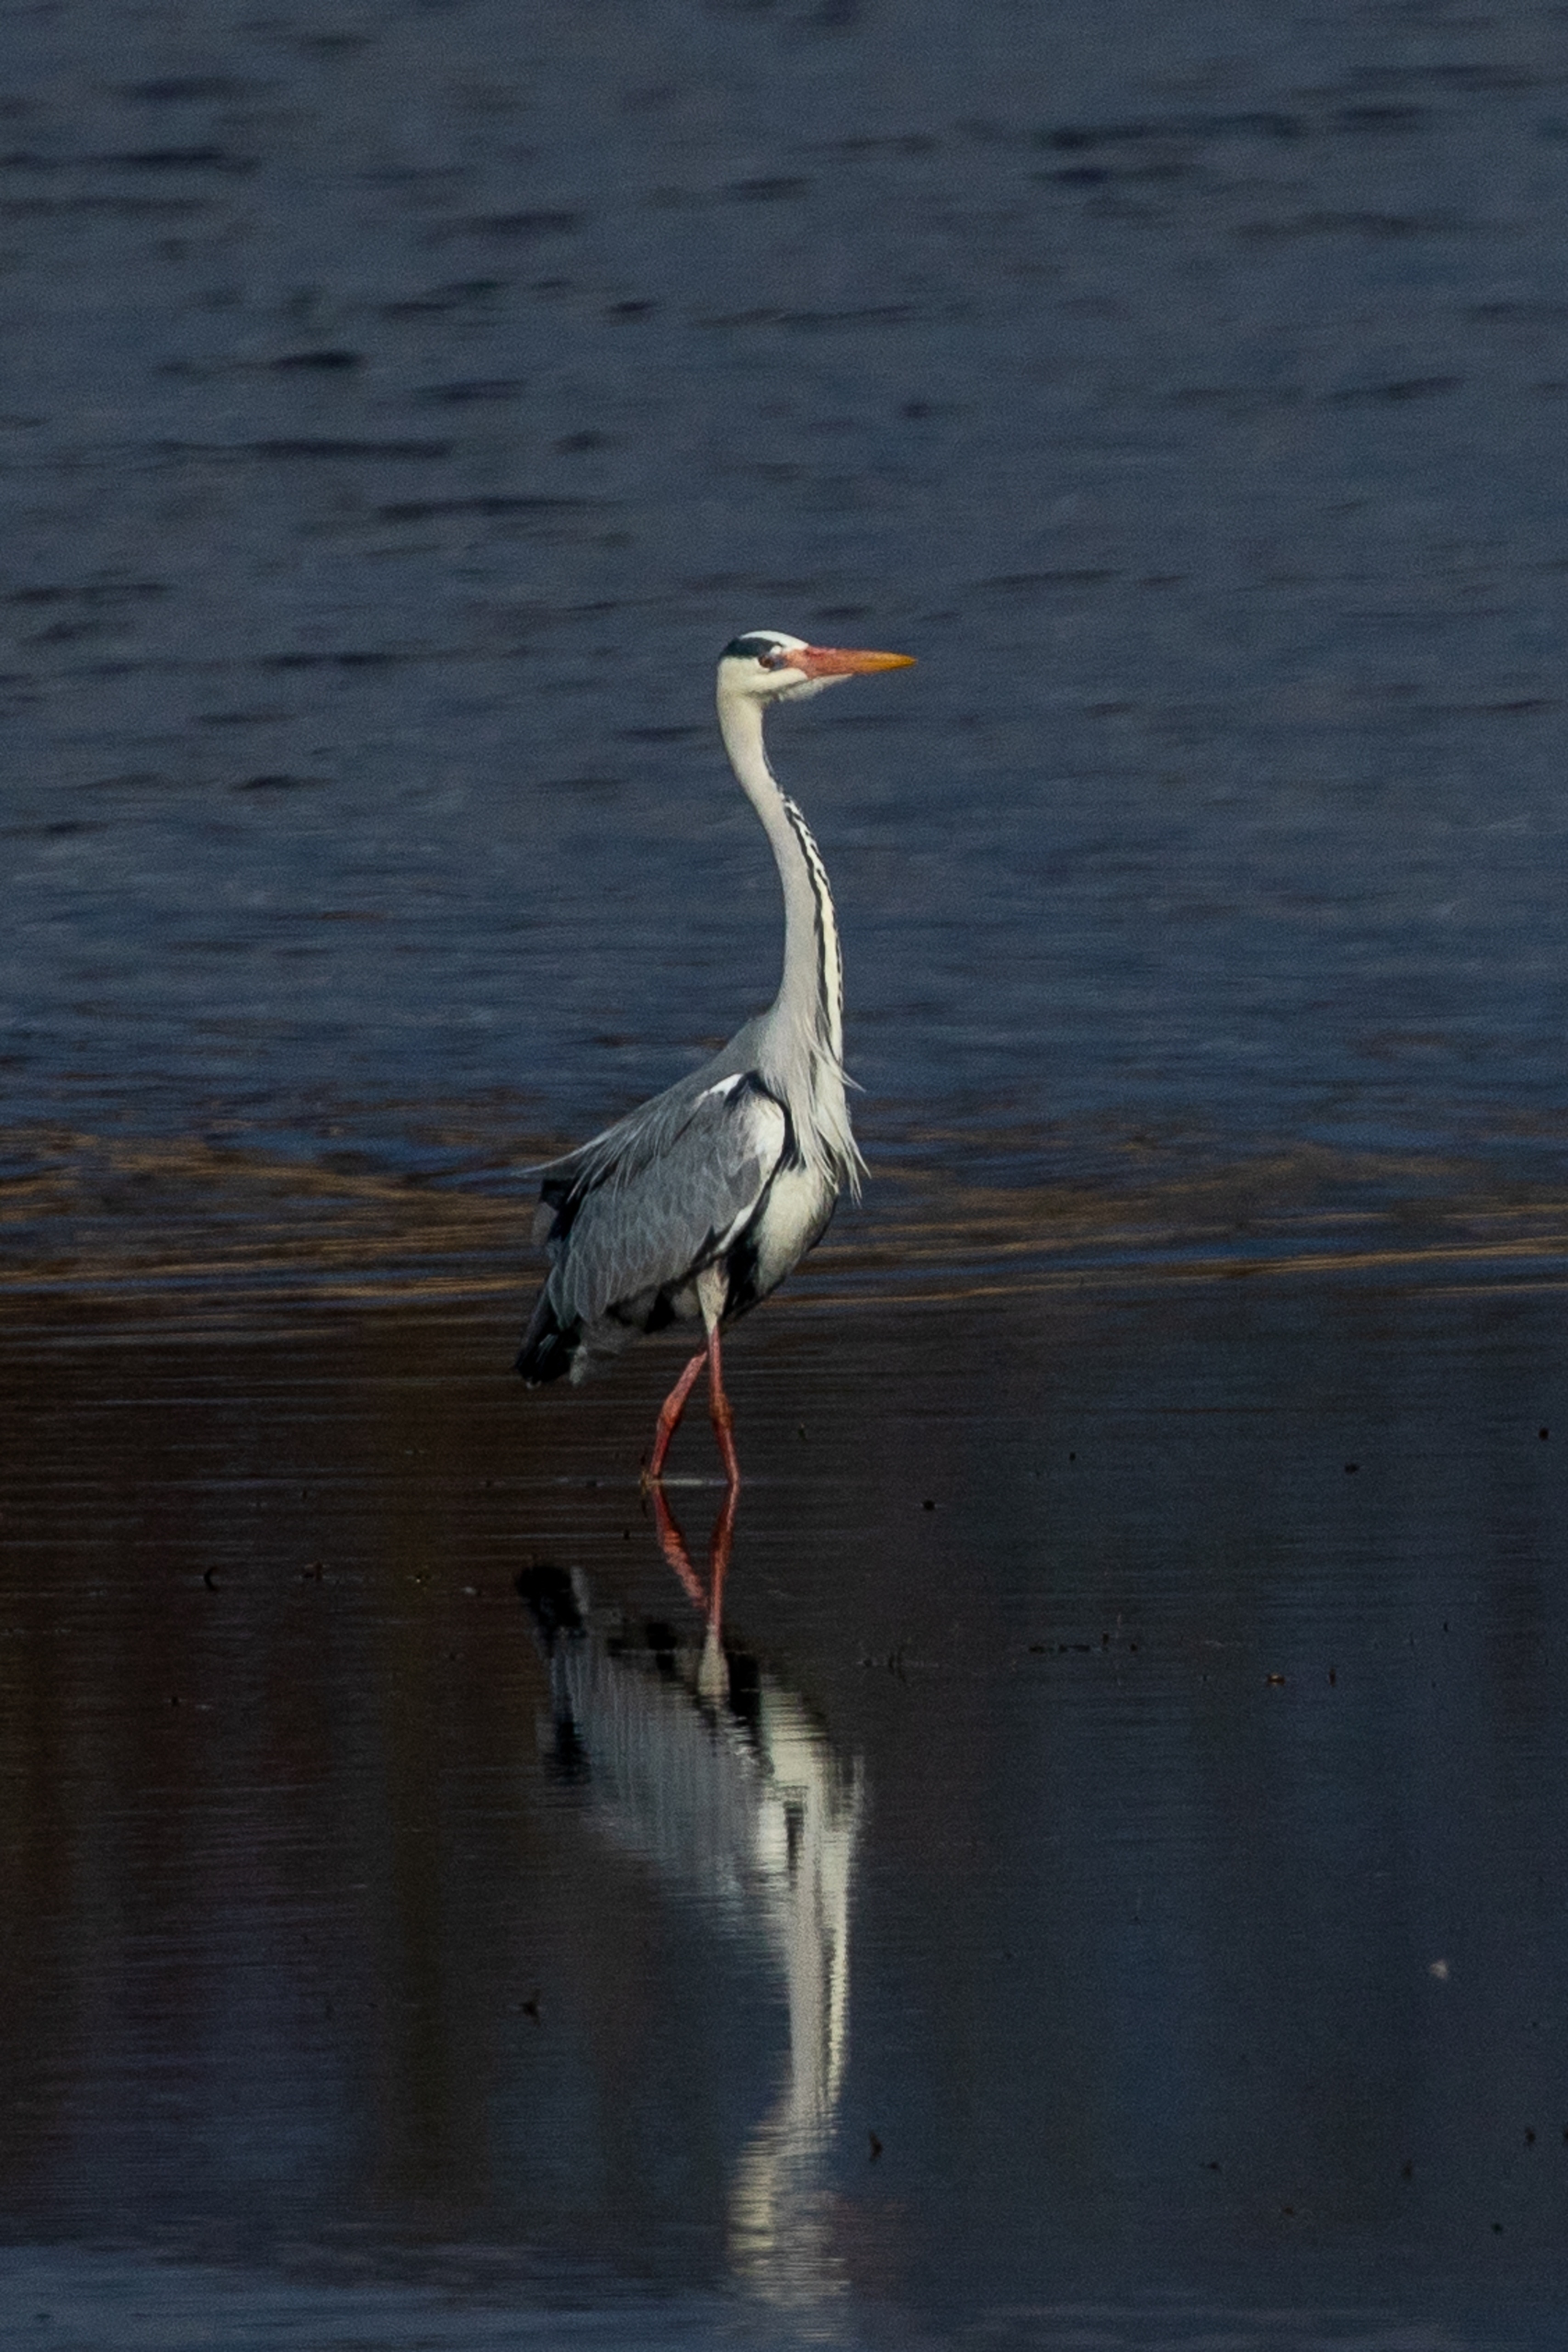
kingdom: Animalia
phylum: Chordata
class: Aves
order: Pelecaniformes
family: Ardeidae
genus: Ardea
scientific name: Ardea cinerea
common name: Fiskehejre
